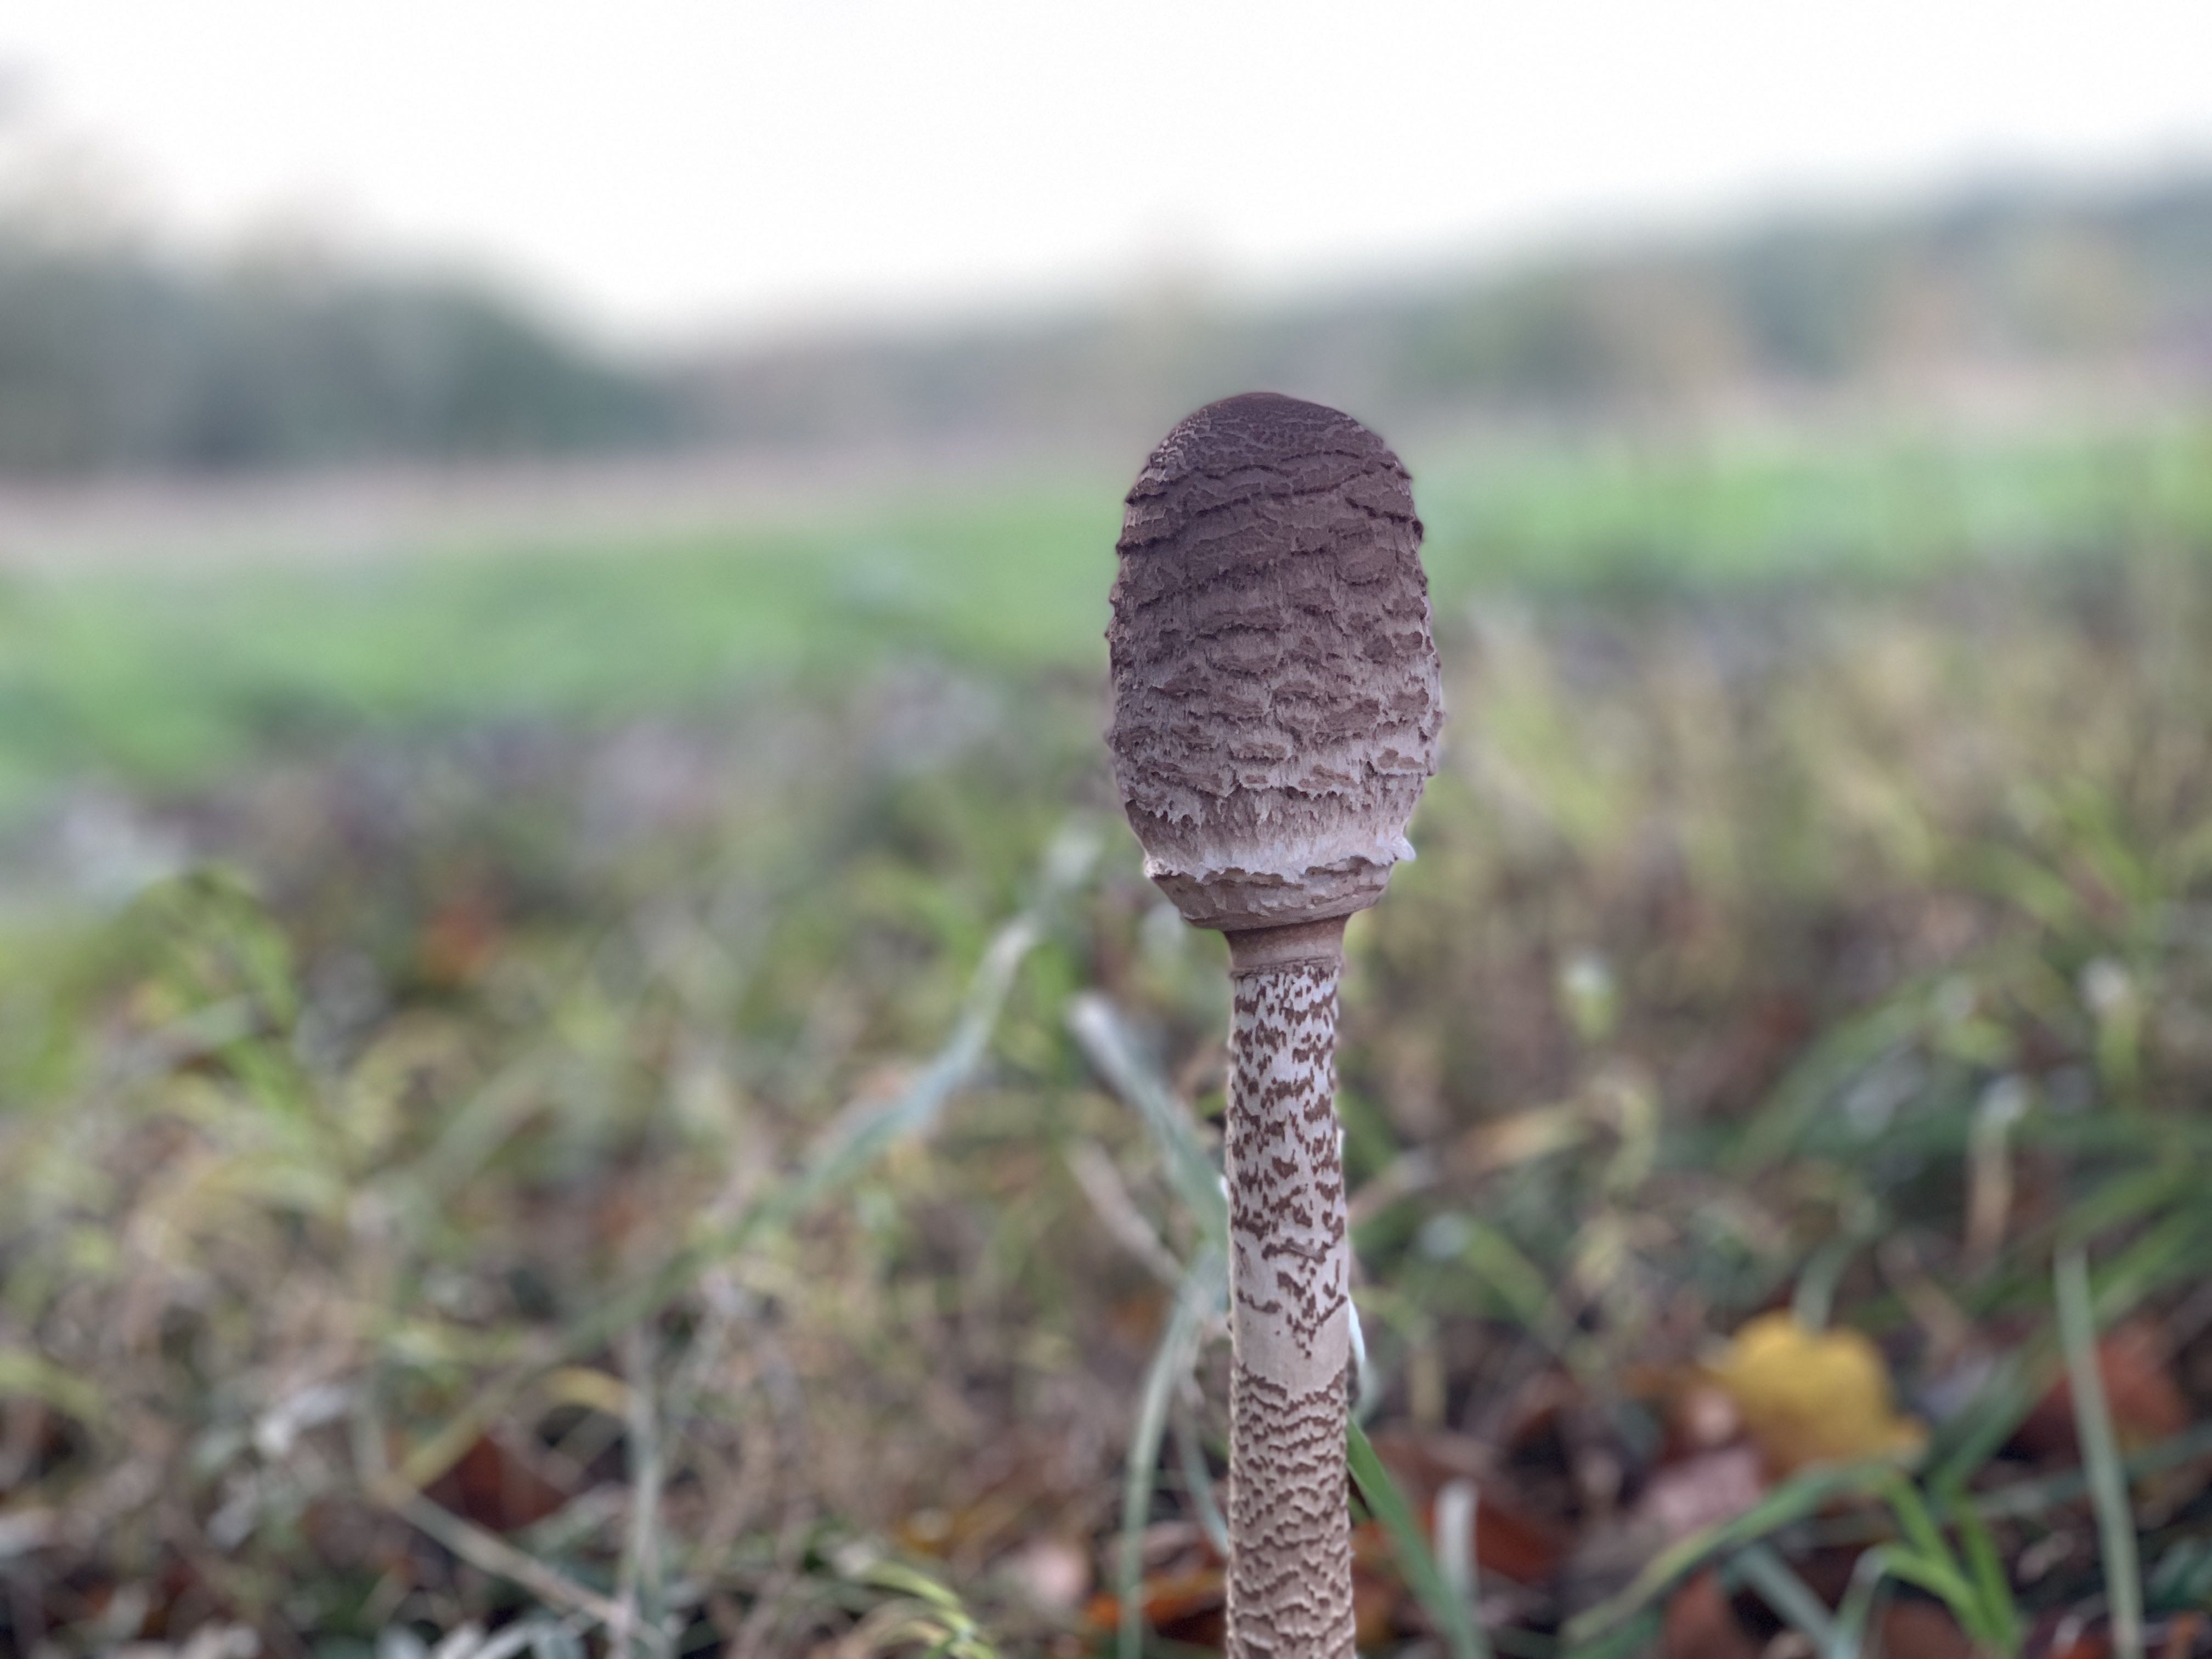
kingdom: Fungi
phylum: Basidiomycota
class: Agaricomycetes
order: Agaricales
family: Agaricaceae
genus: Macrolepiota
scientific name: Macrolepiota procera
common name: stor kæmpeparasolhat
